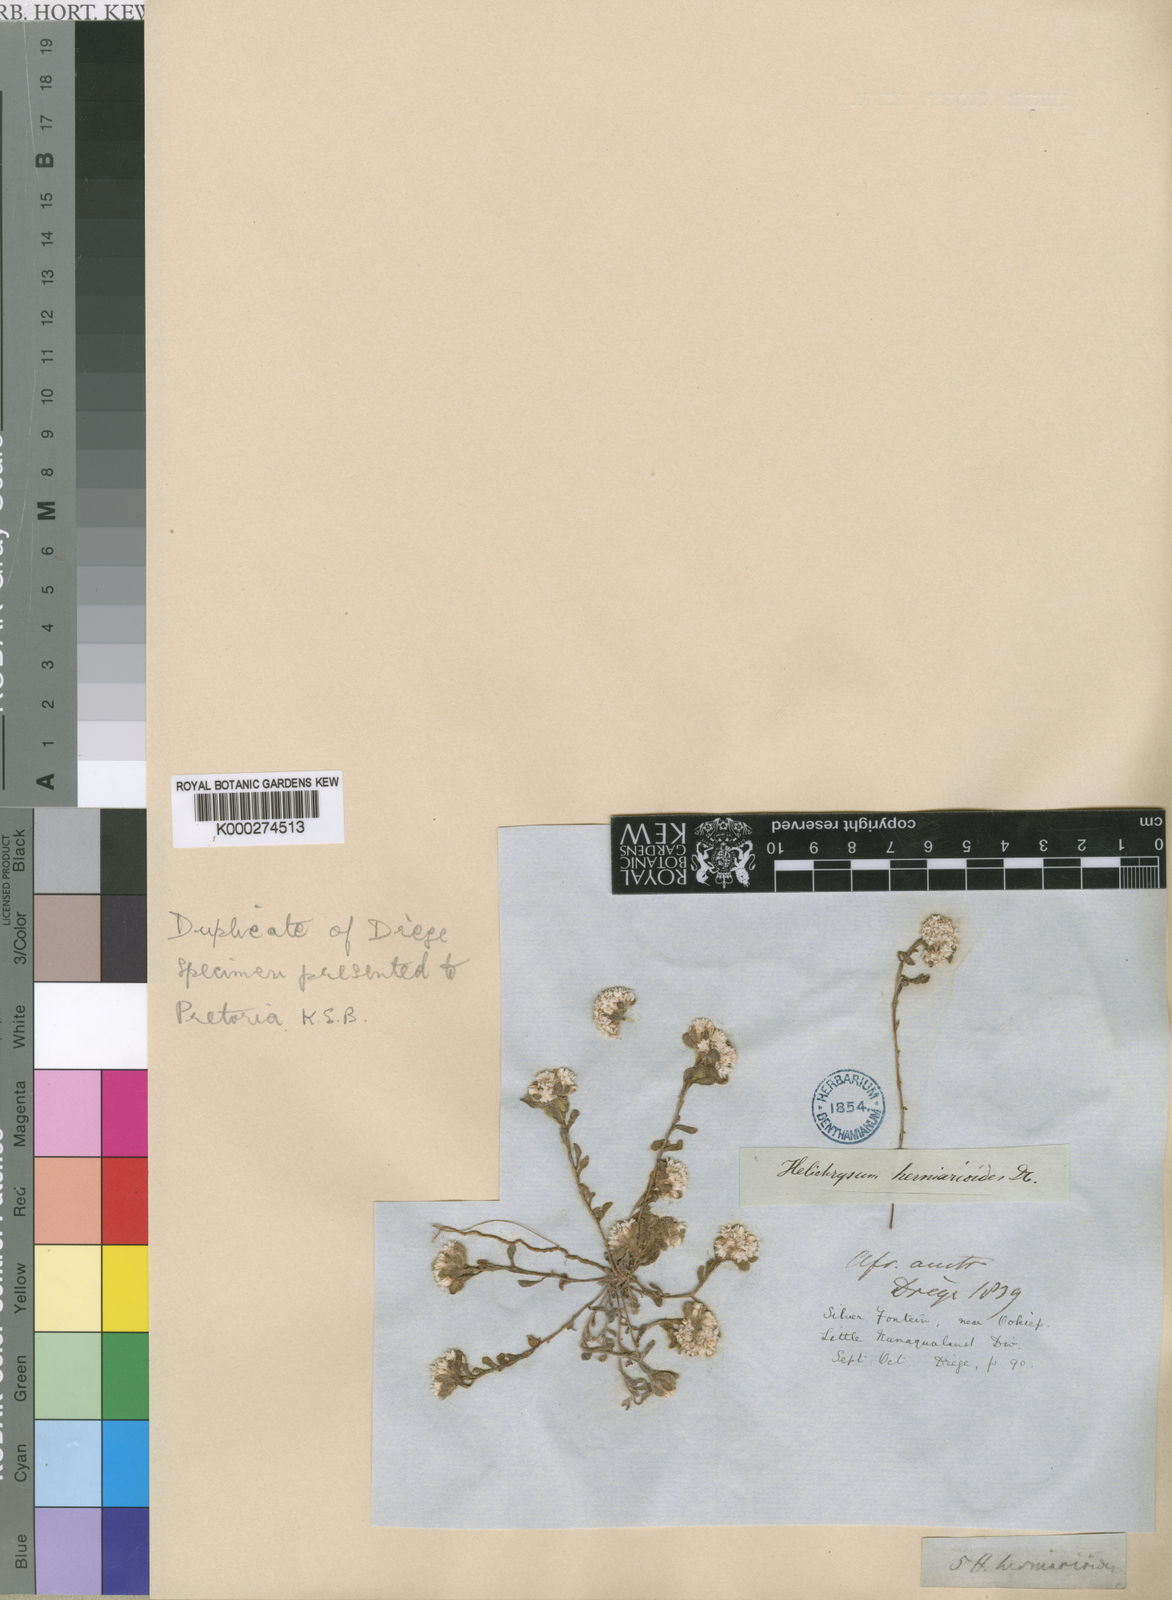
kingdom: Plantae
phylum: Tracheophyta
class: Magnoliopsida
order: Asterales
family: Asteraceae
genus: Helichrysum
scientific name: Helichrysum herniarioides
